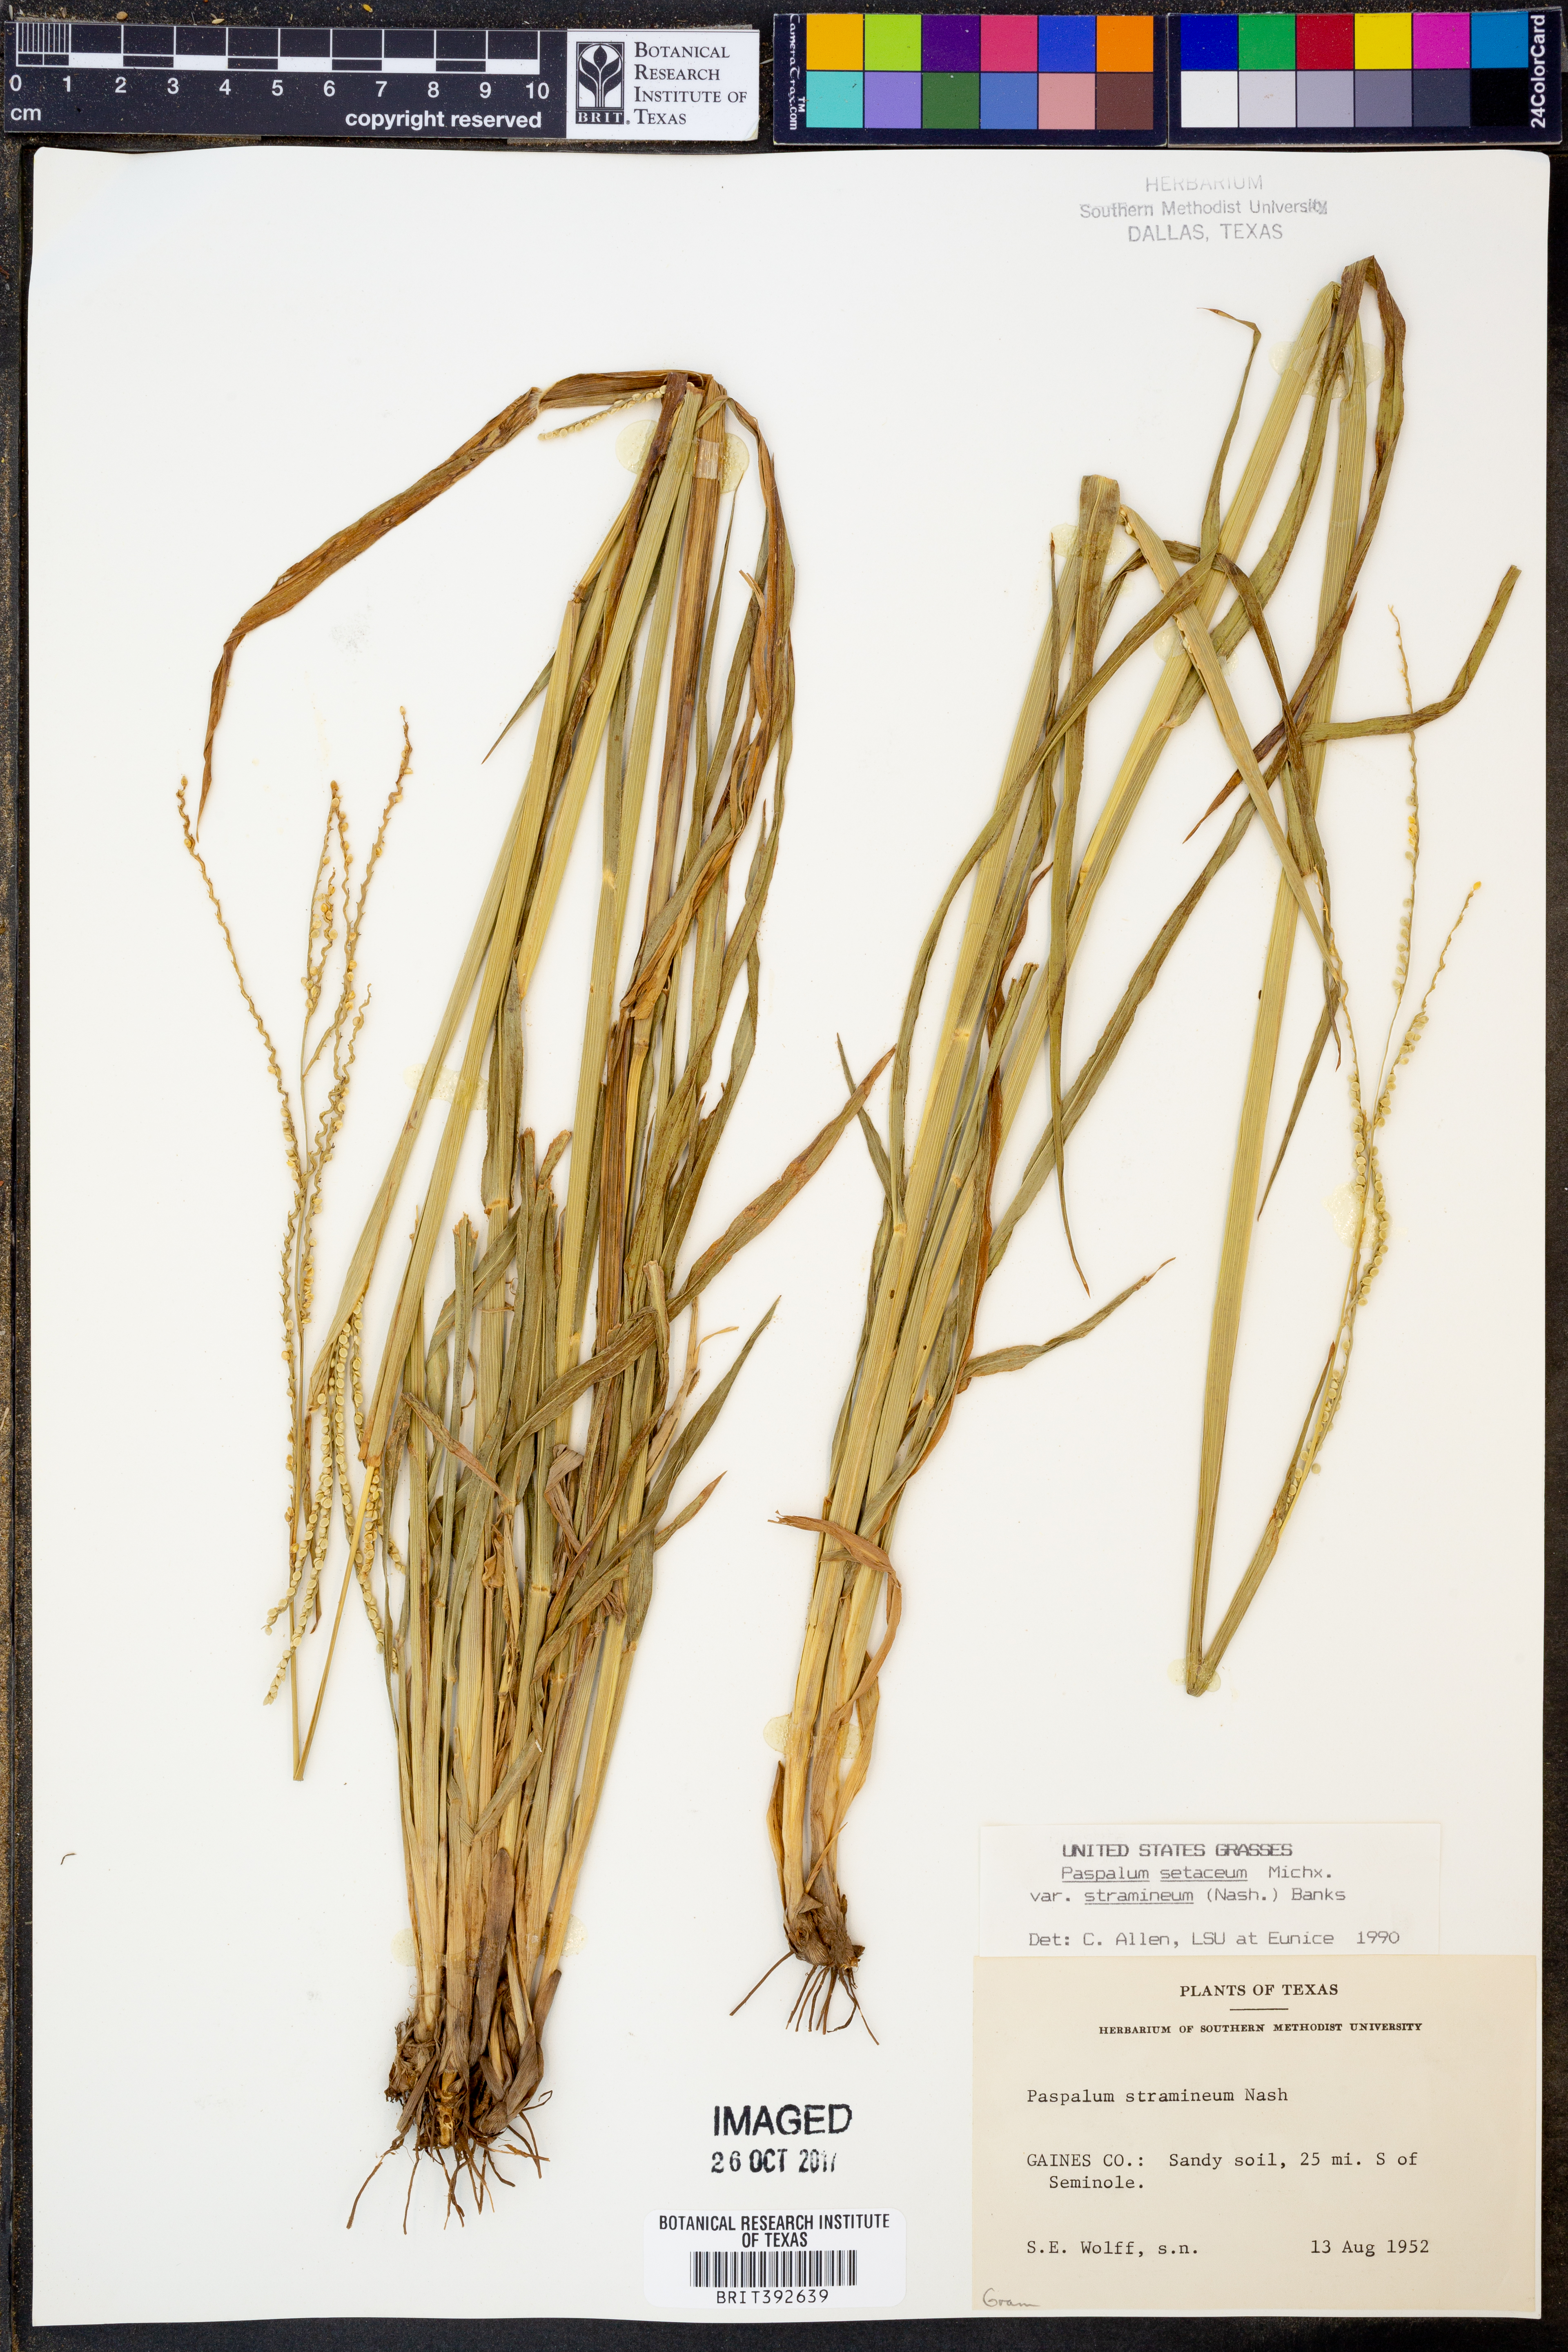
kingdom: Plantae
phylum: Tracheophyta
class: Liliopsida
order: Poales
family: Poaceae
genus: Paspalum
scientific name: Paspalum setaceum
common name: Slender paspalum
